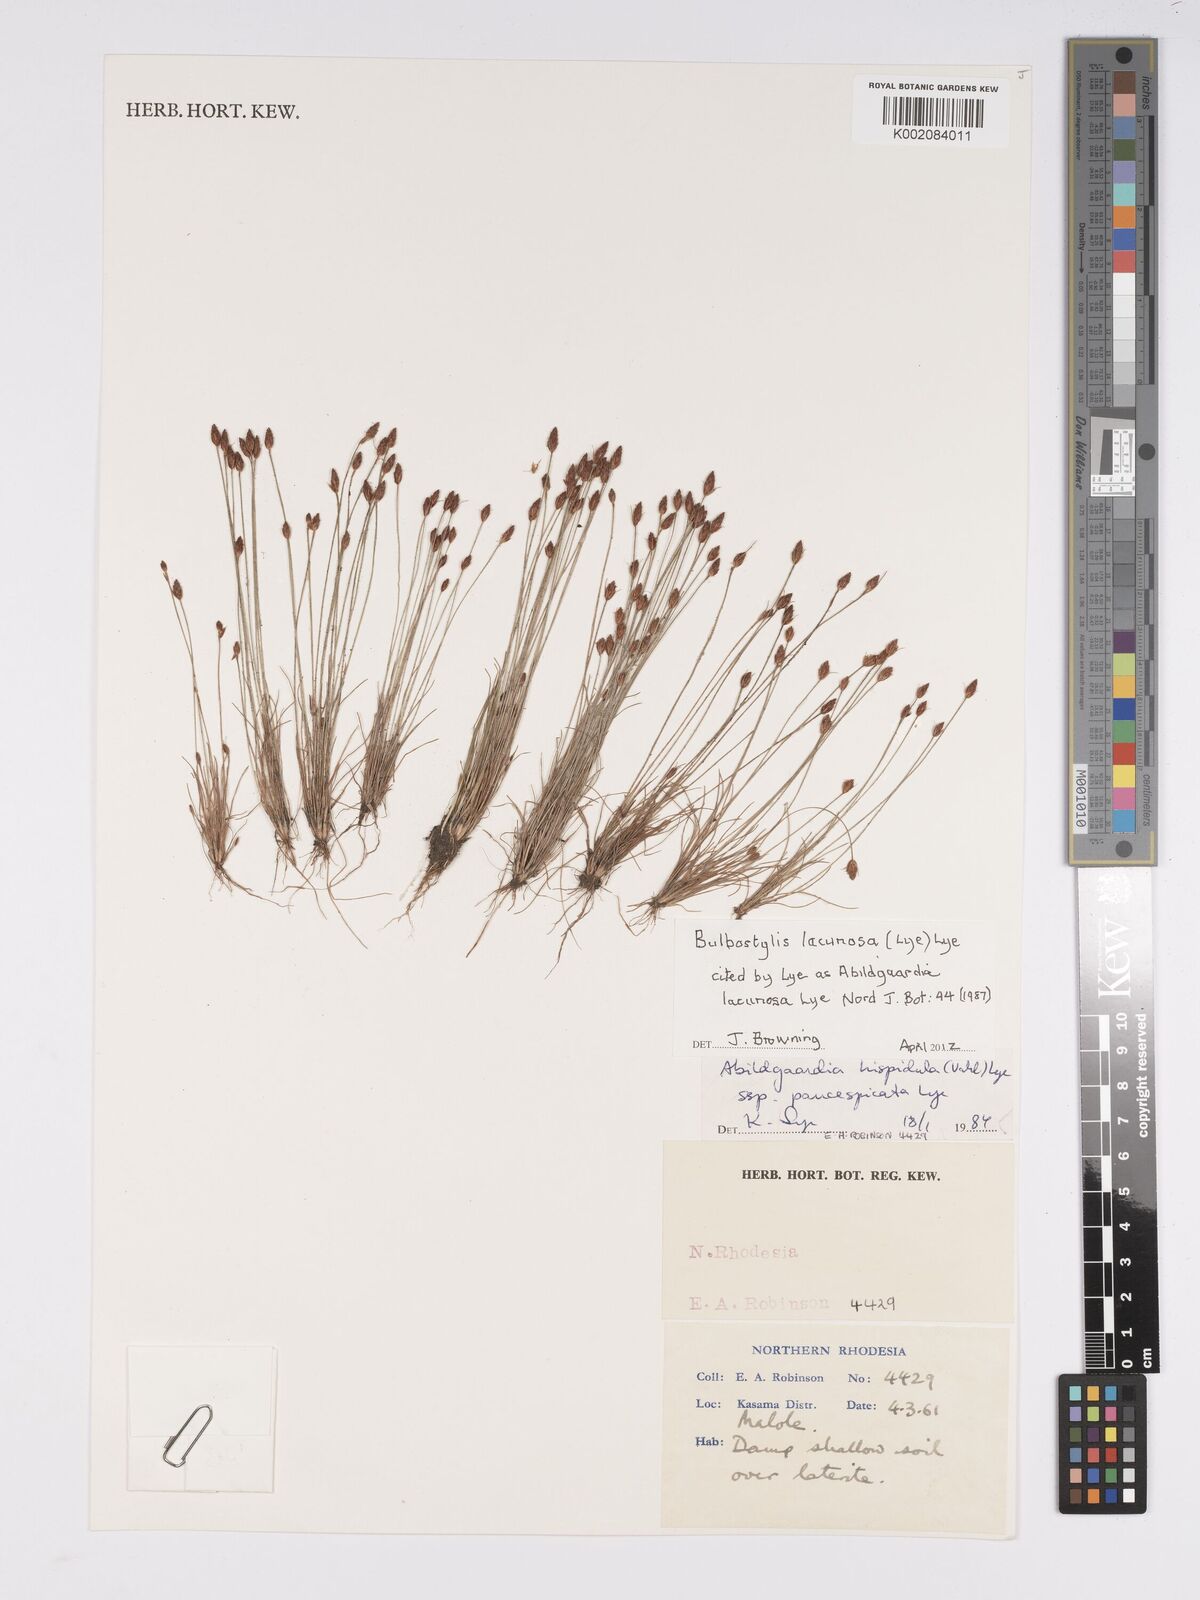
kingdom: Plantae
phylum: Tracheophyta
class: Liliopsida
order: Poales
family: Cyperaceae
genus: Bulbostylis
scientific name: Bulbostylis lacunosa
